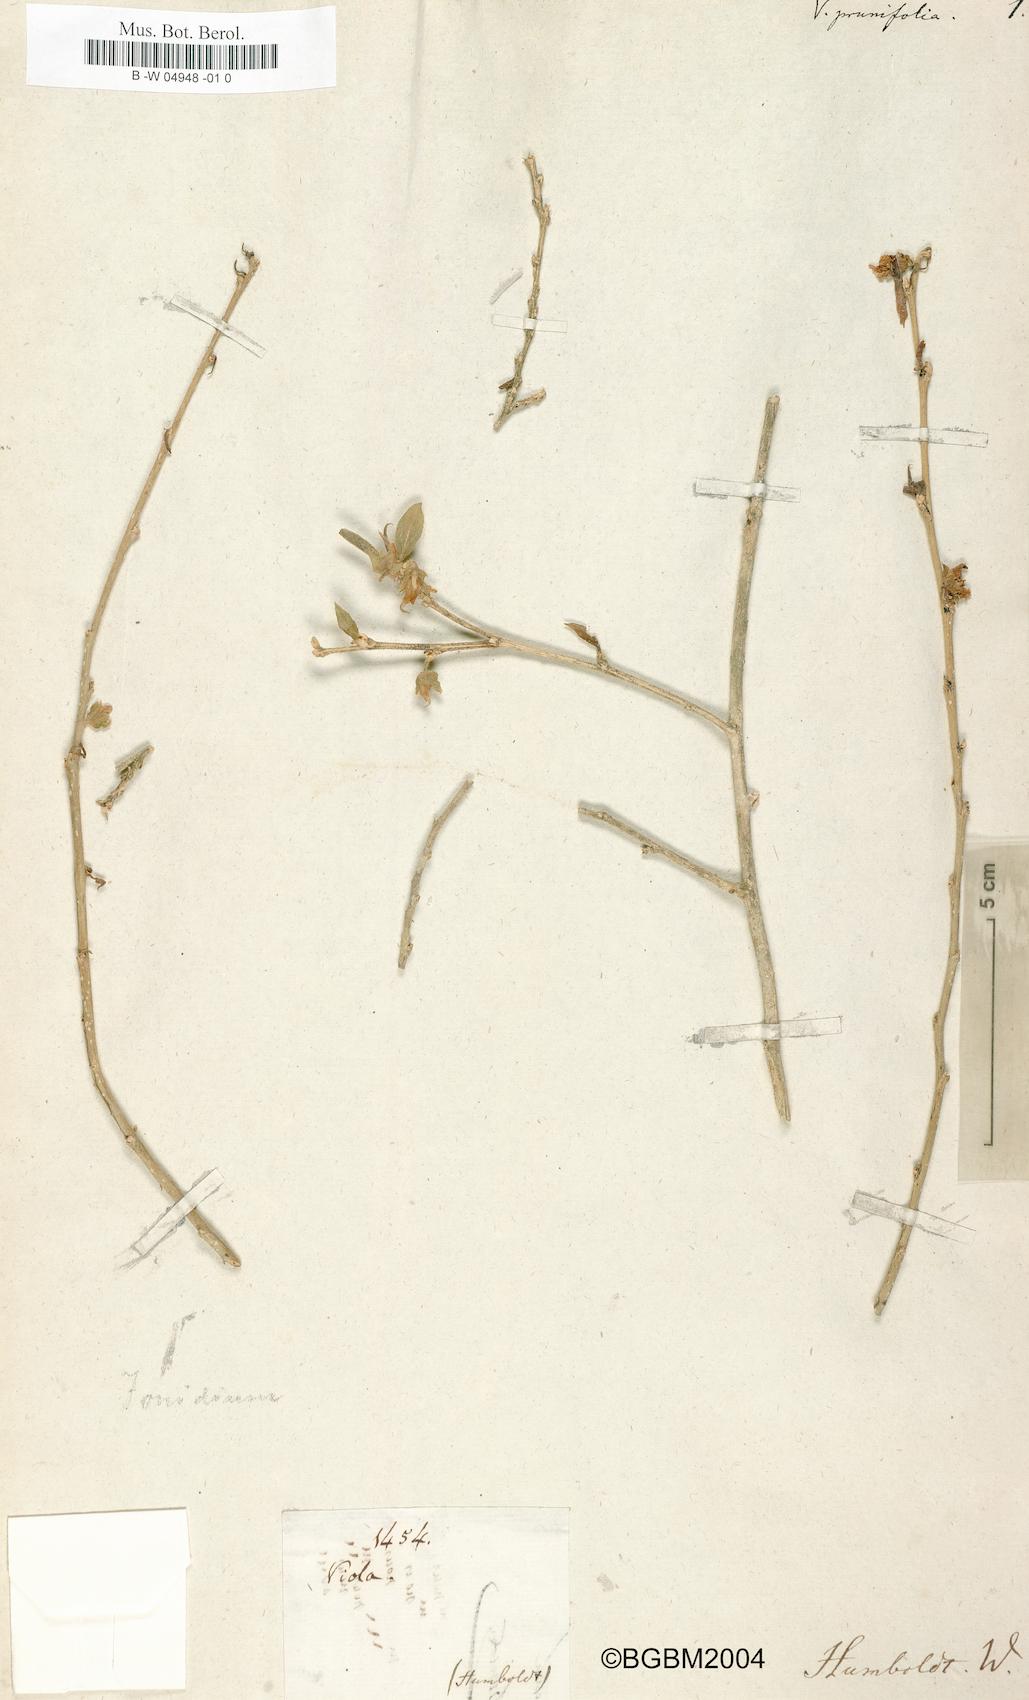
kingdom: Plantae
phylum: Tracheophyta
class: Magnoliopsida
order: Malpighiales
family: Violaceae
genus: Pombalia
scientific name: Pombalia prunifolia
